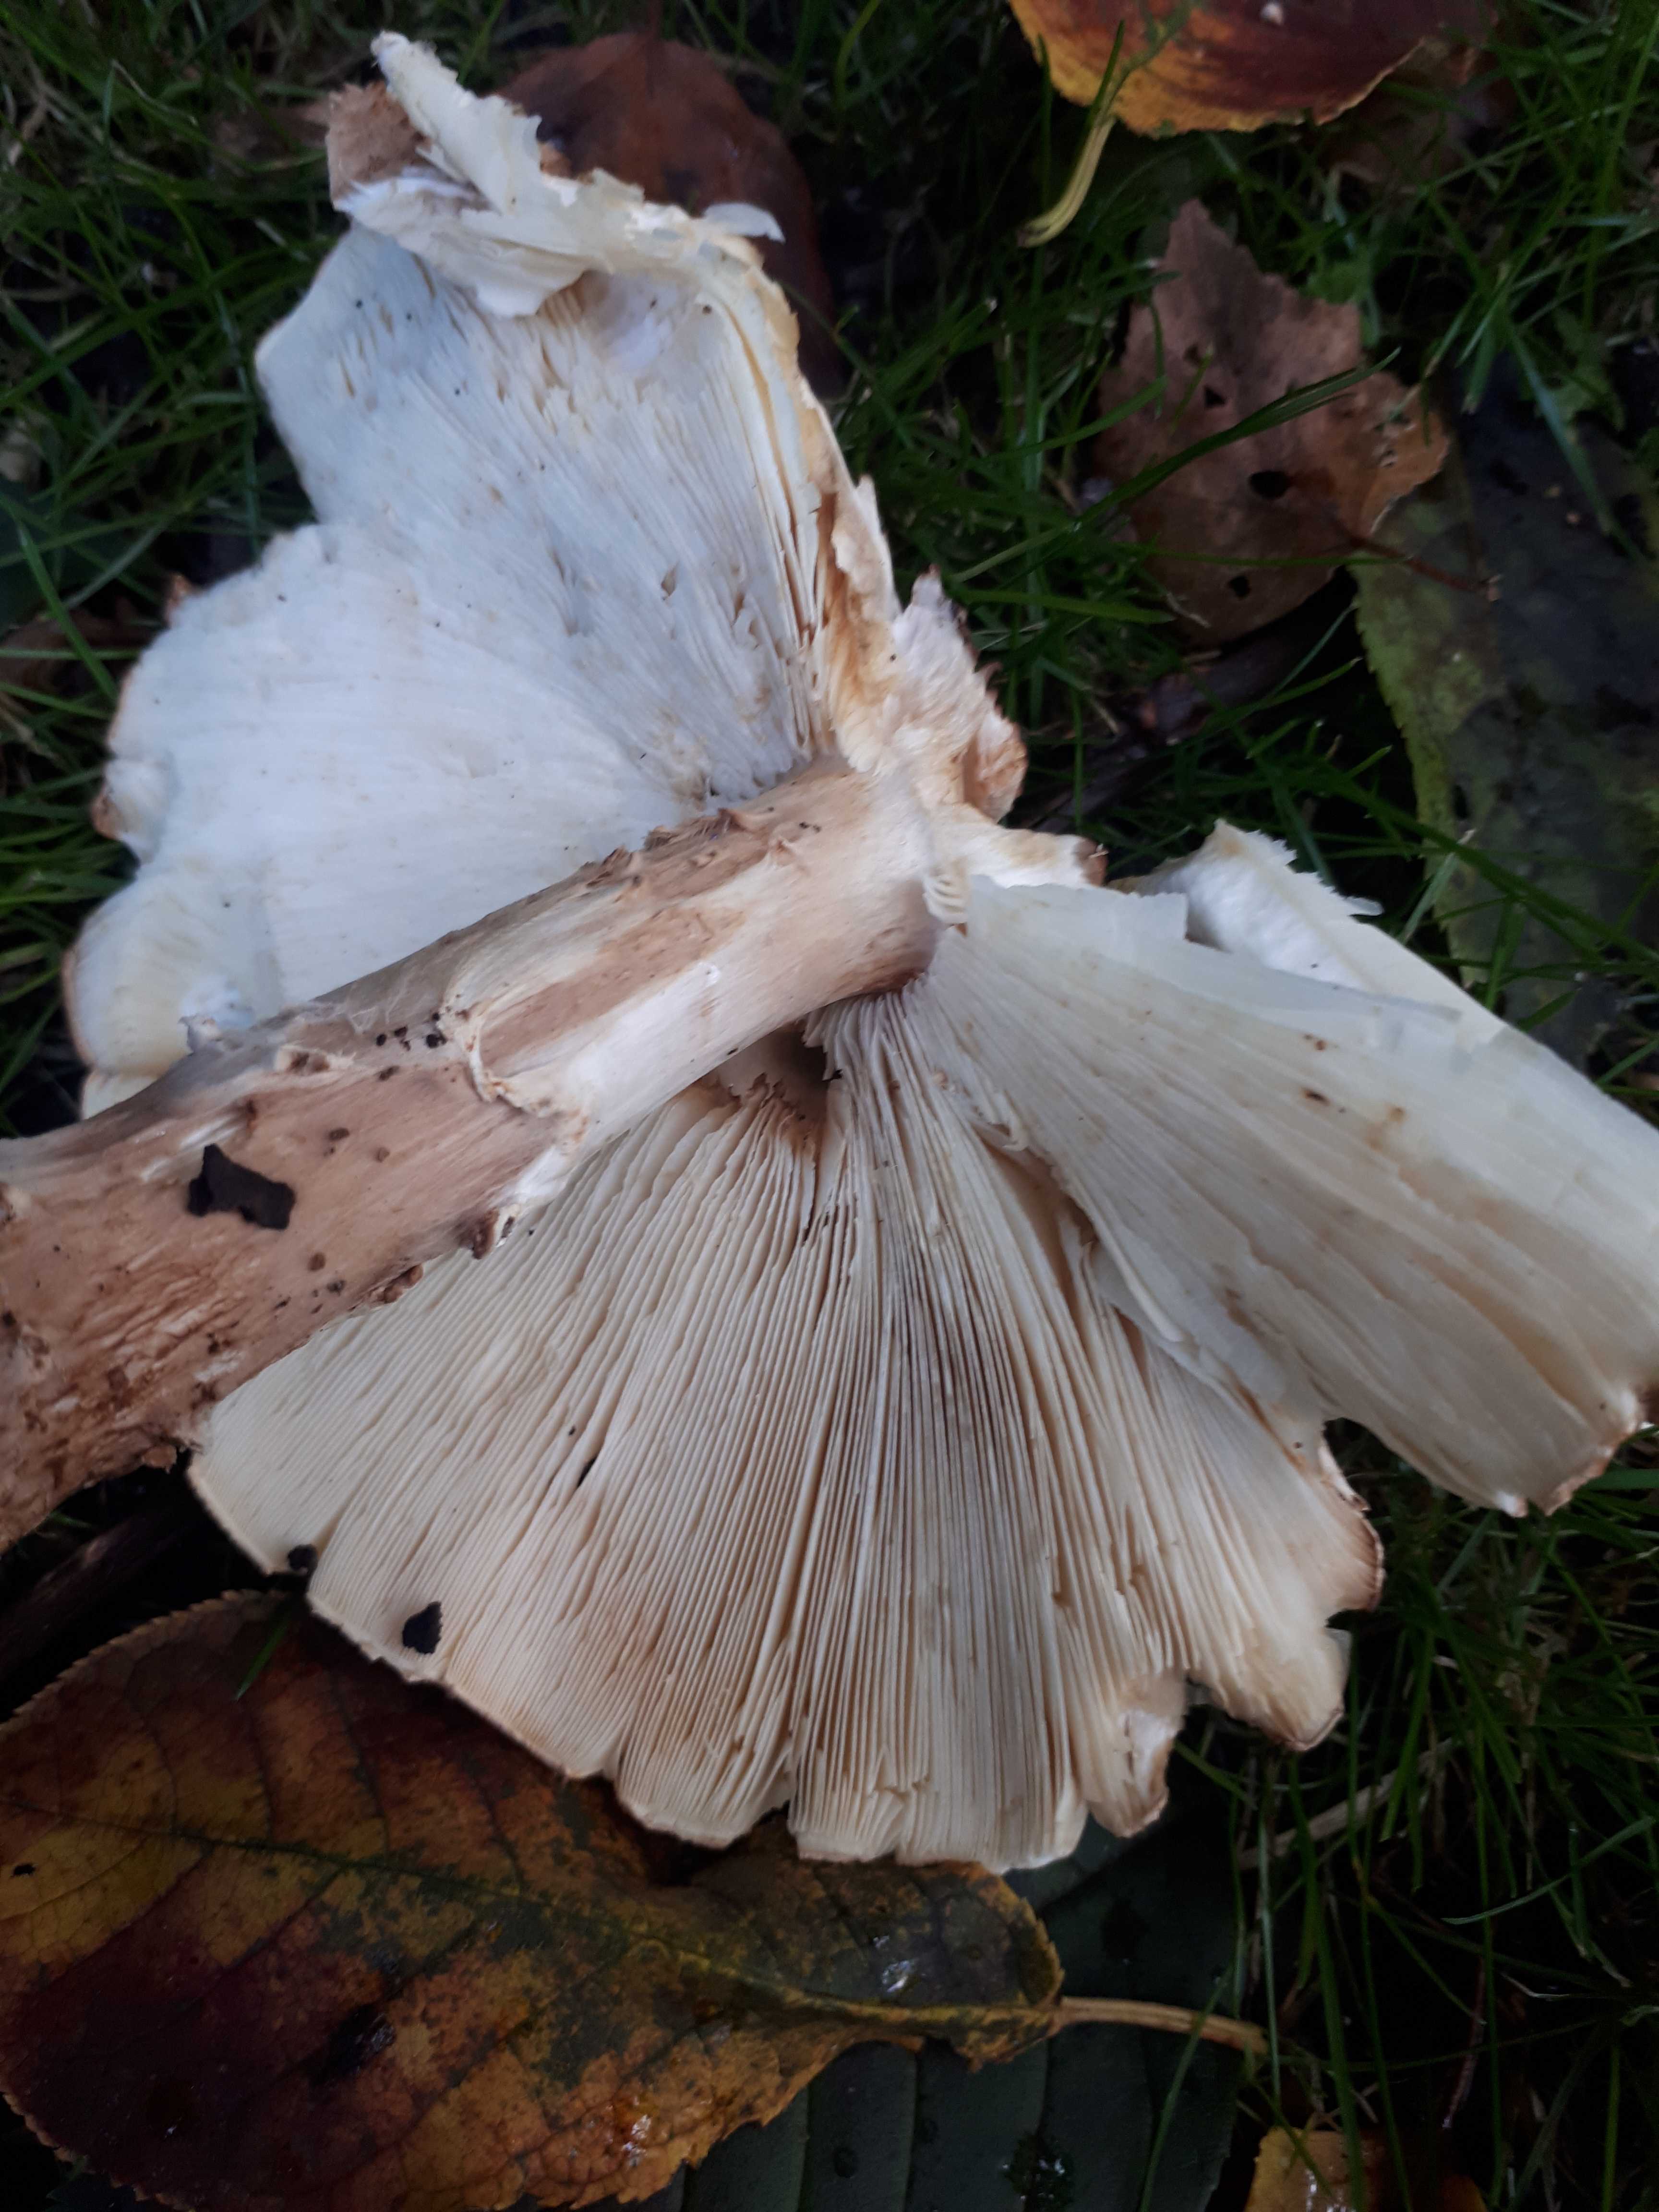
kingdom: Fungi
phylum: Basidiomycota
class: Agaricomycetes
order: Agaricales
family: Agaricaceae
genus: Echinoderma
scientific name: Echinoderma asperum
